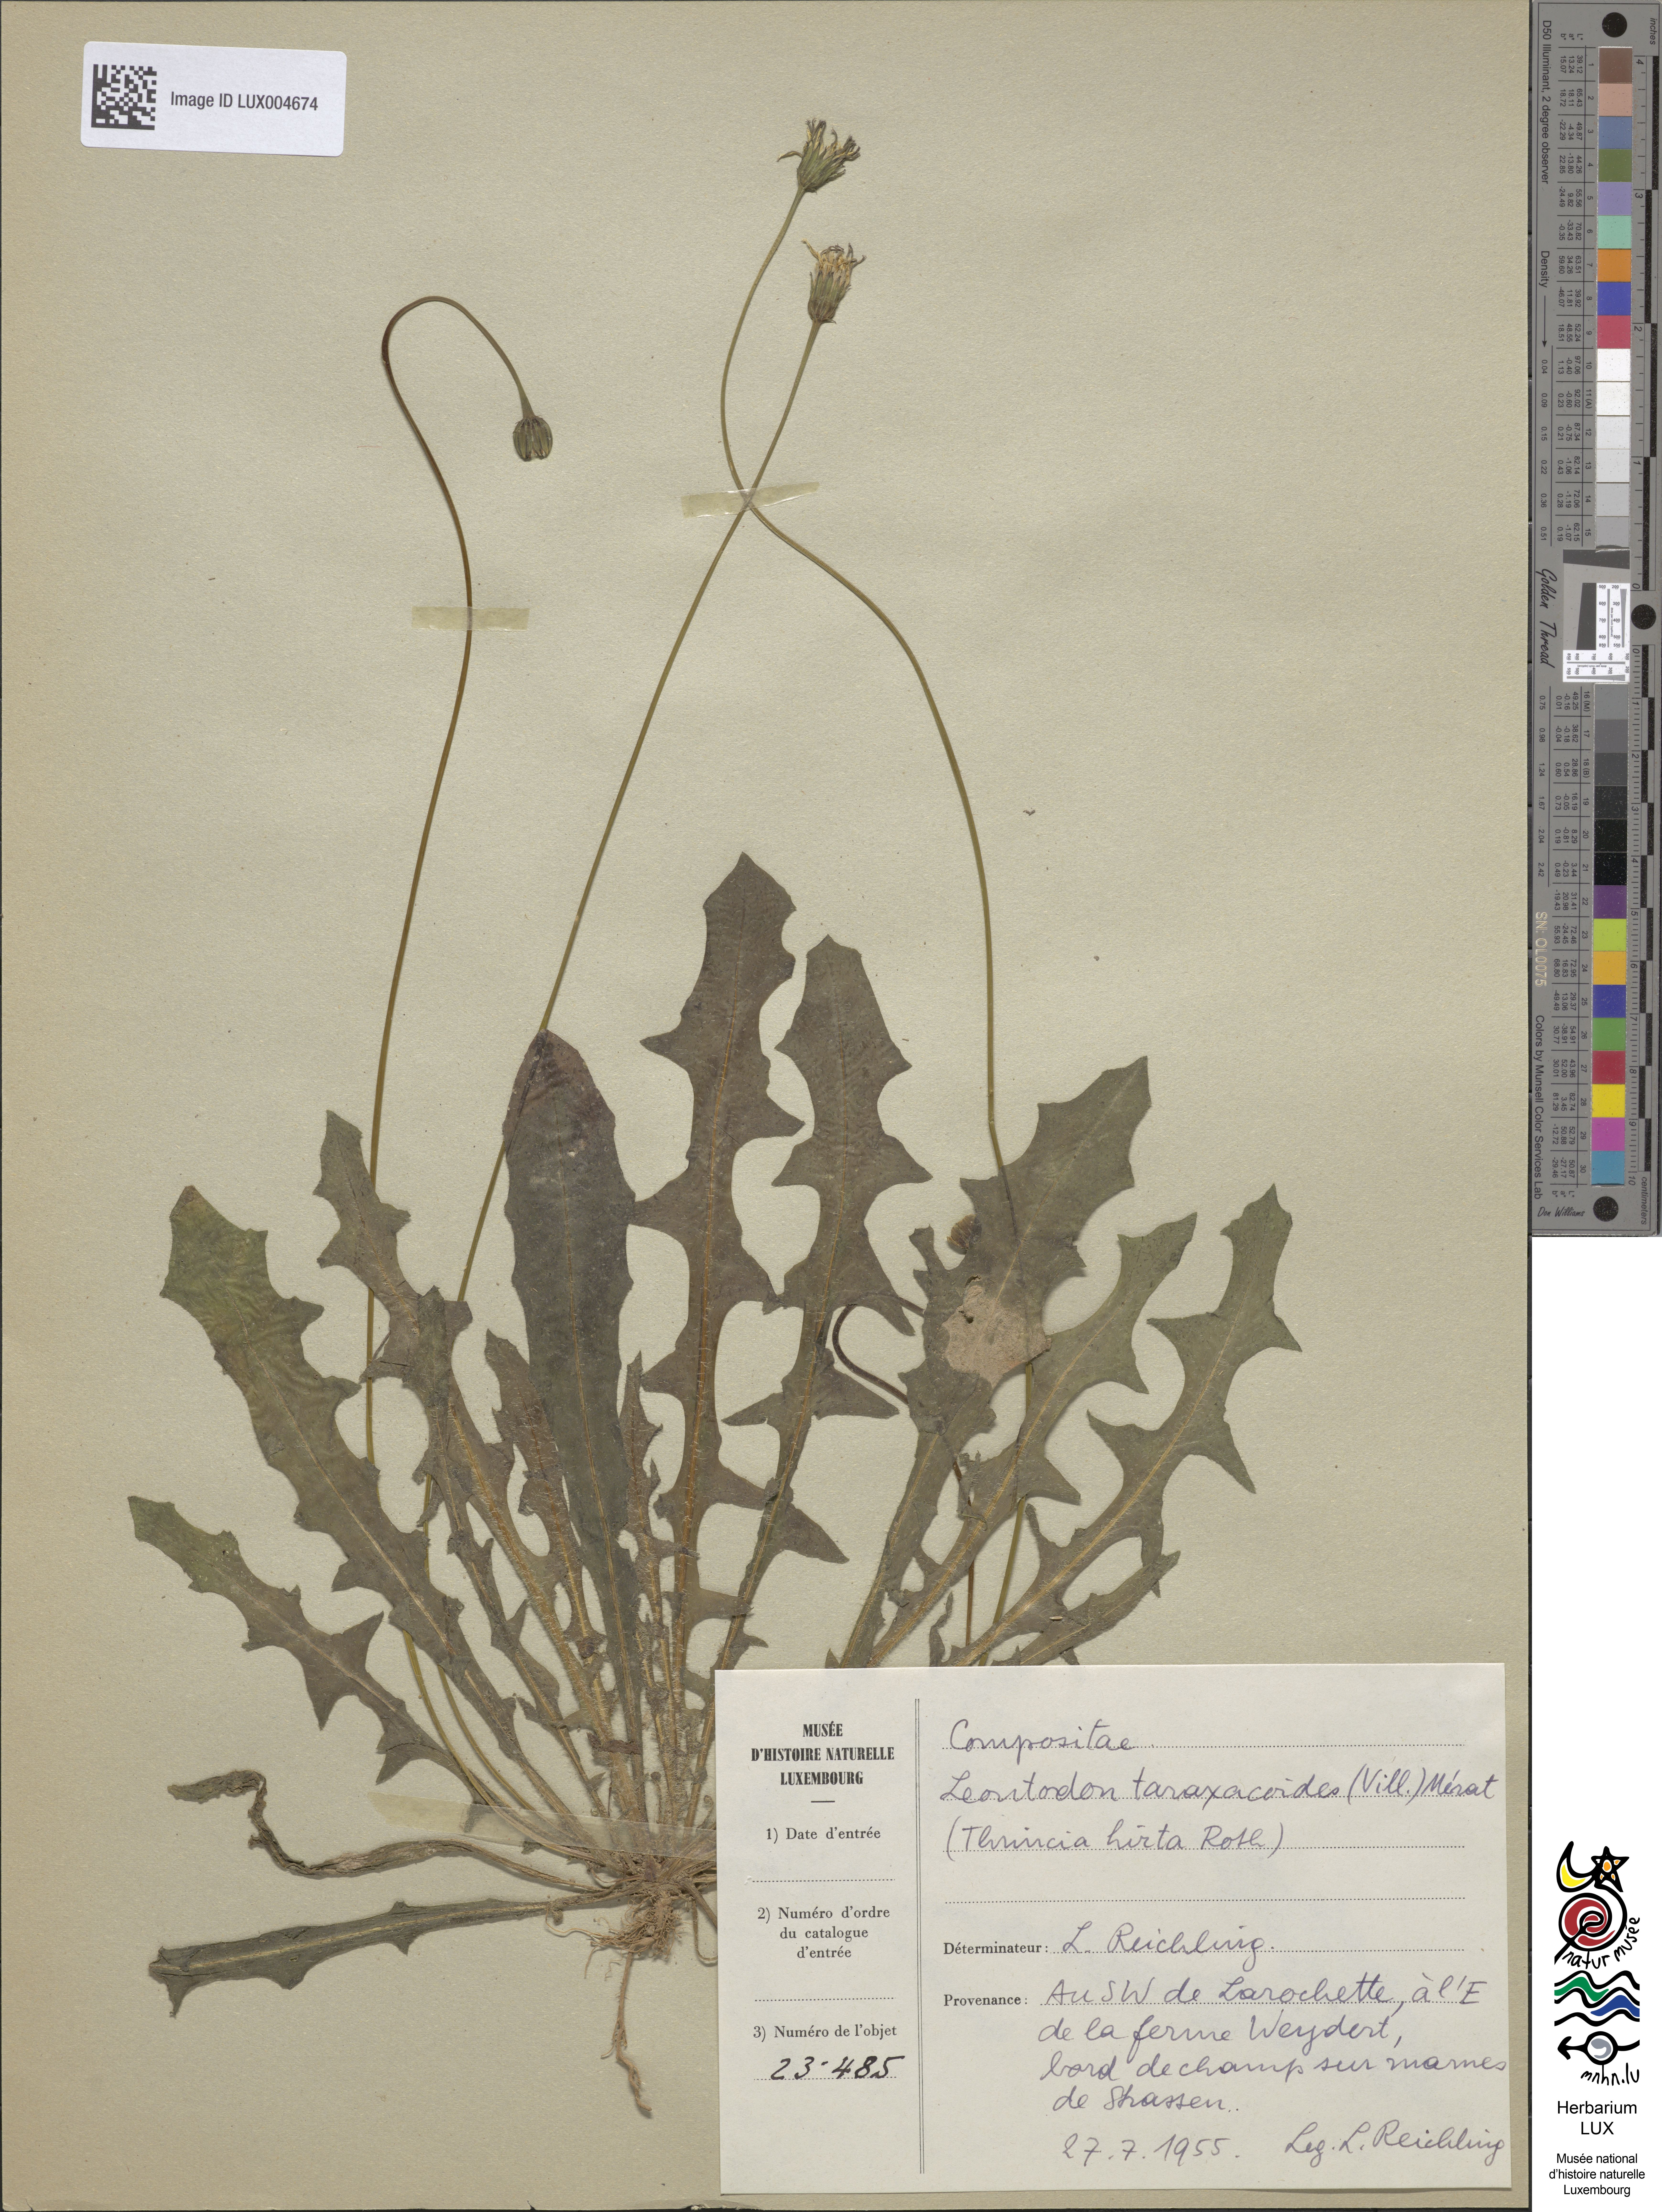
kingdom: Plantae
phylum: Tracheophyta
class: Magnoliopsida
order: Asterales
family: Asteraceae
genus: Thrincia
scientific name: Thrincia saxatilis
